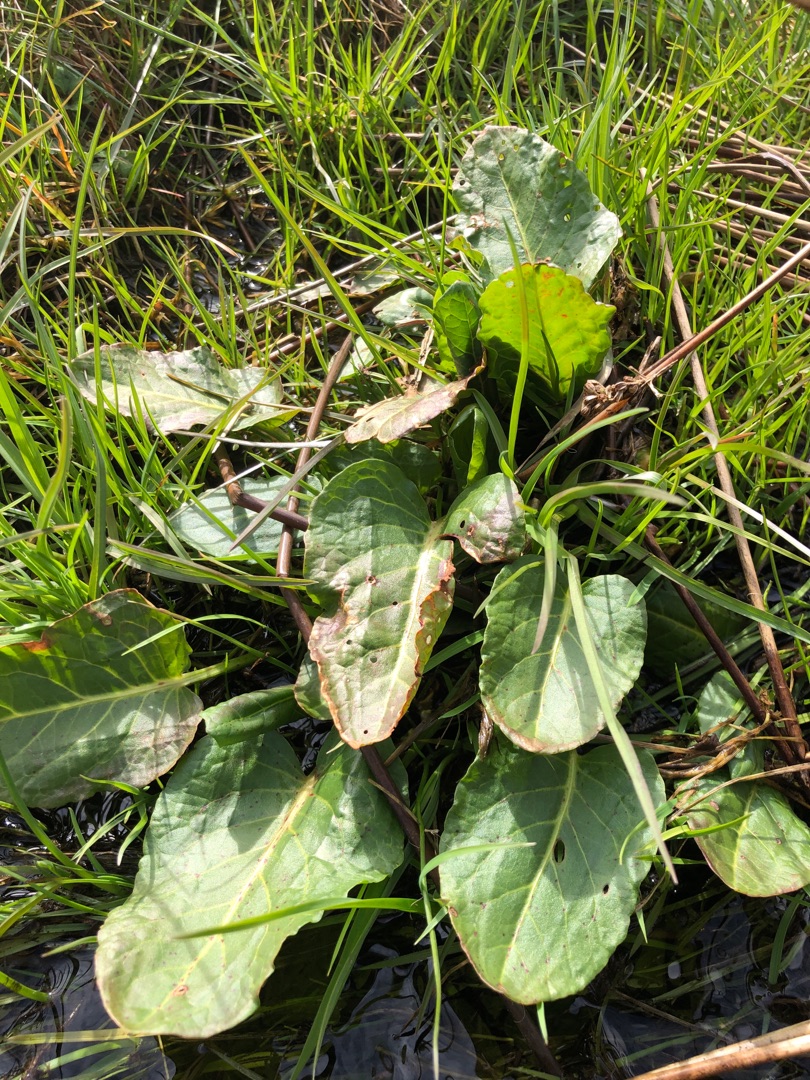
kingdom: Plantae
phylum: Tracheophyta
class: Magnoliopsida
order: Caryophyllales
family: Polygonaceae
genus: Rumex
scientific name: Rumex obtusifolius
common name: Butbladet skræppe
